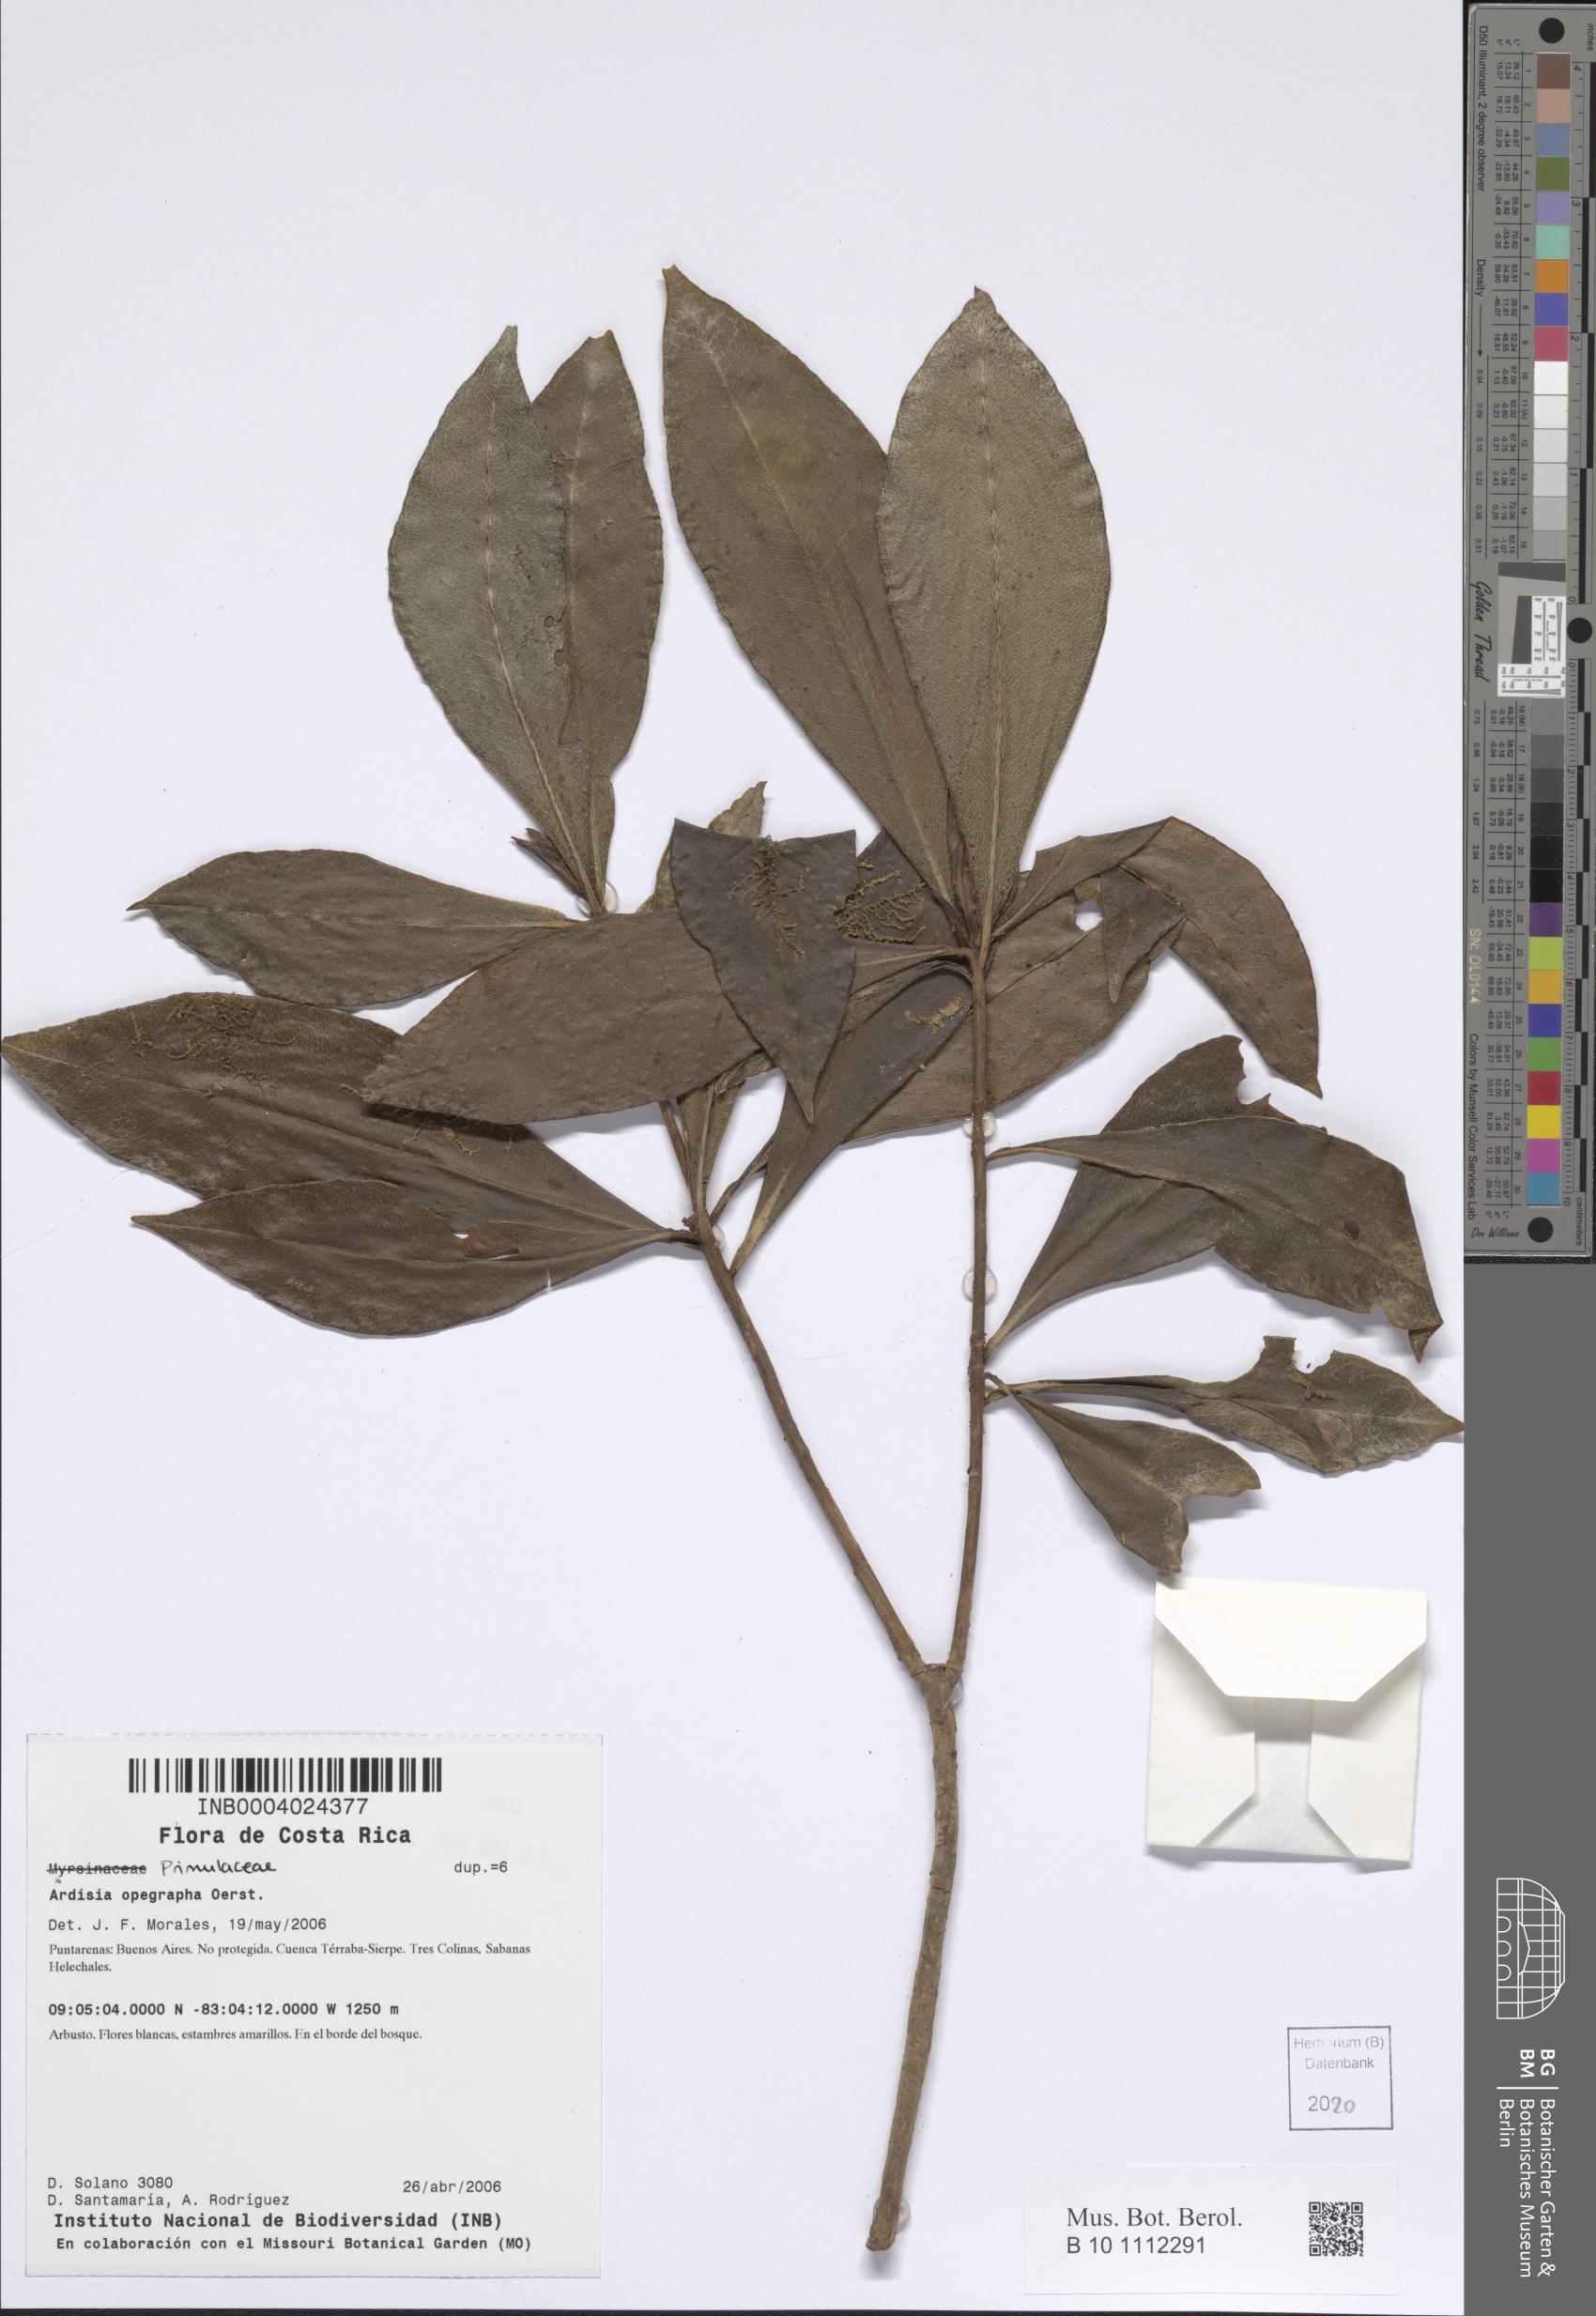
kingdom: Plantae
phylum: Tracheophyta
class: Magnoliopsida
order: Ericales
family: Primulaceae
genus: Ardisia
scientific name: Ardisia opegrapha
